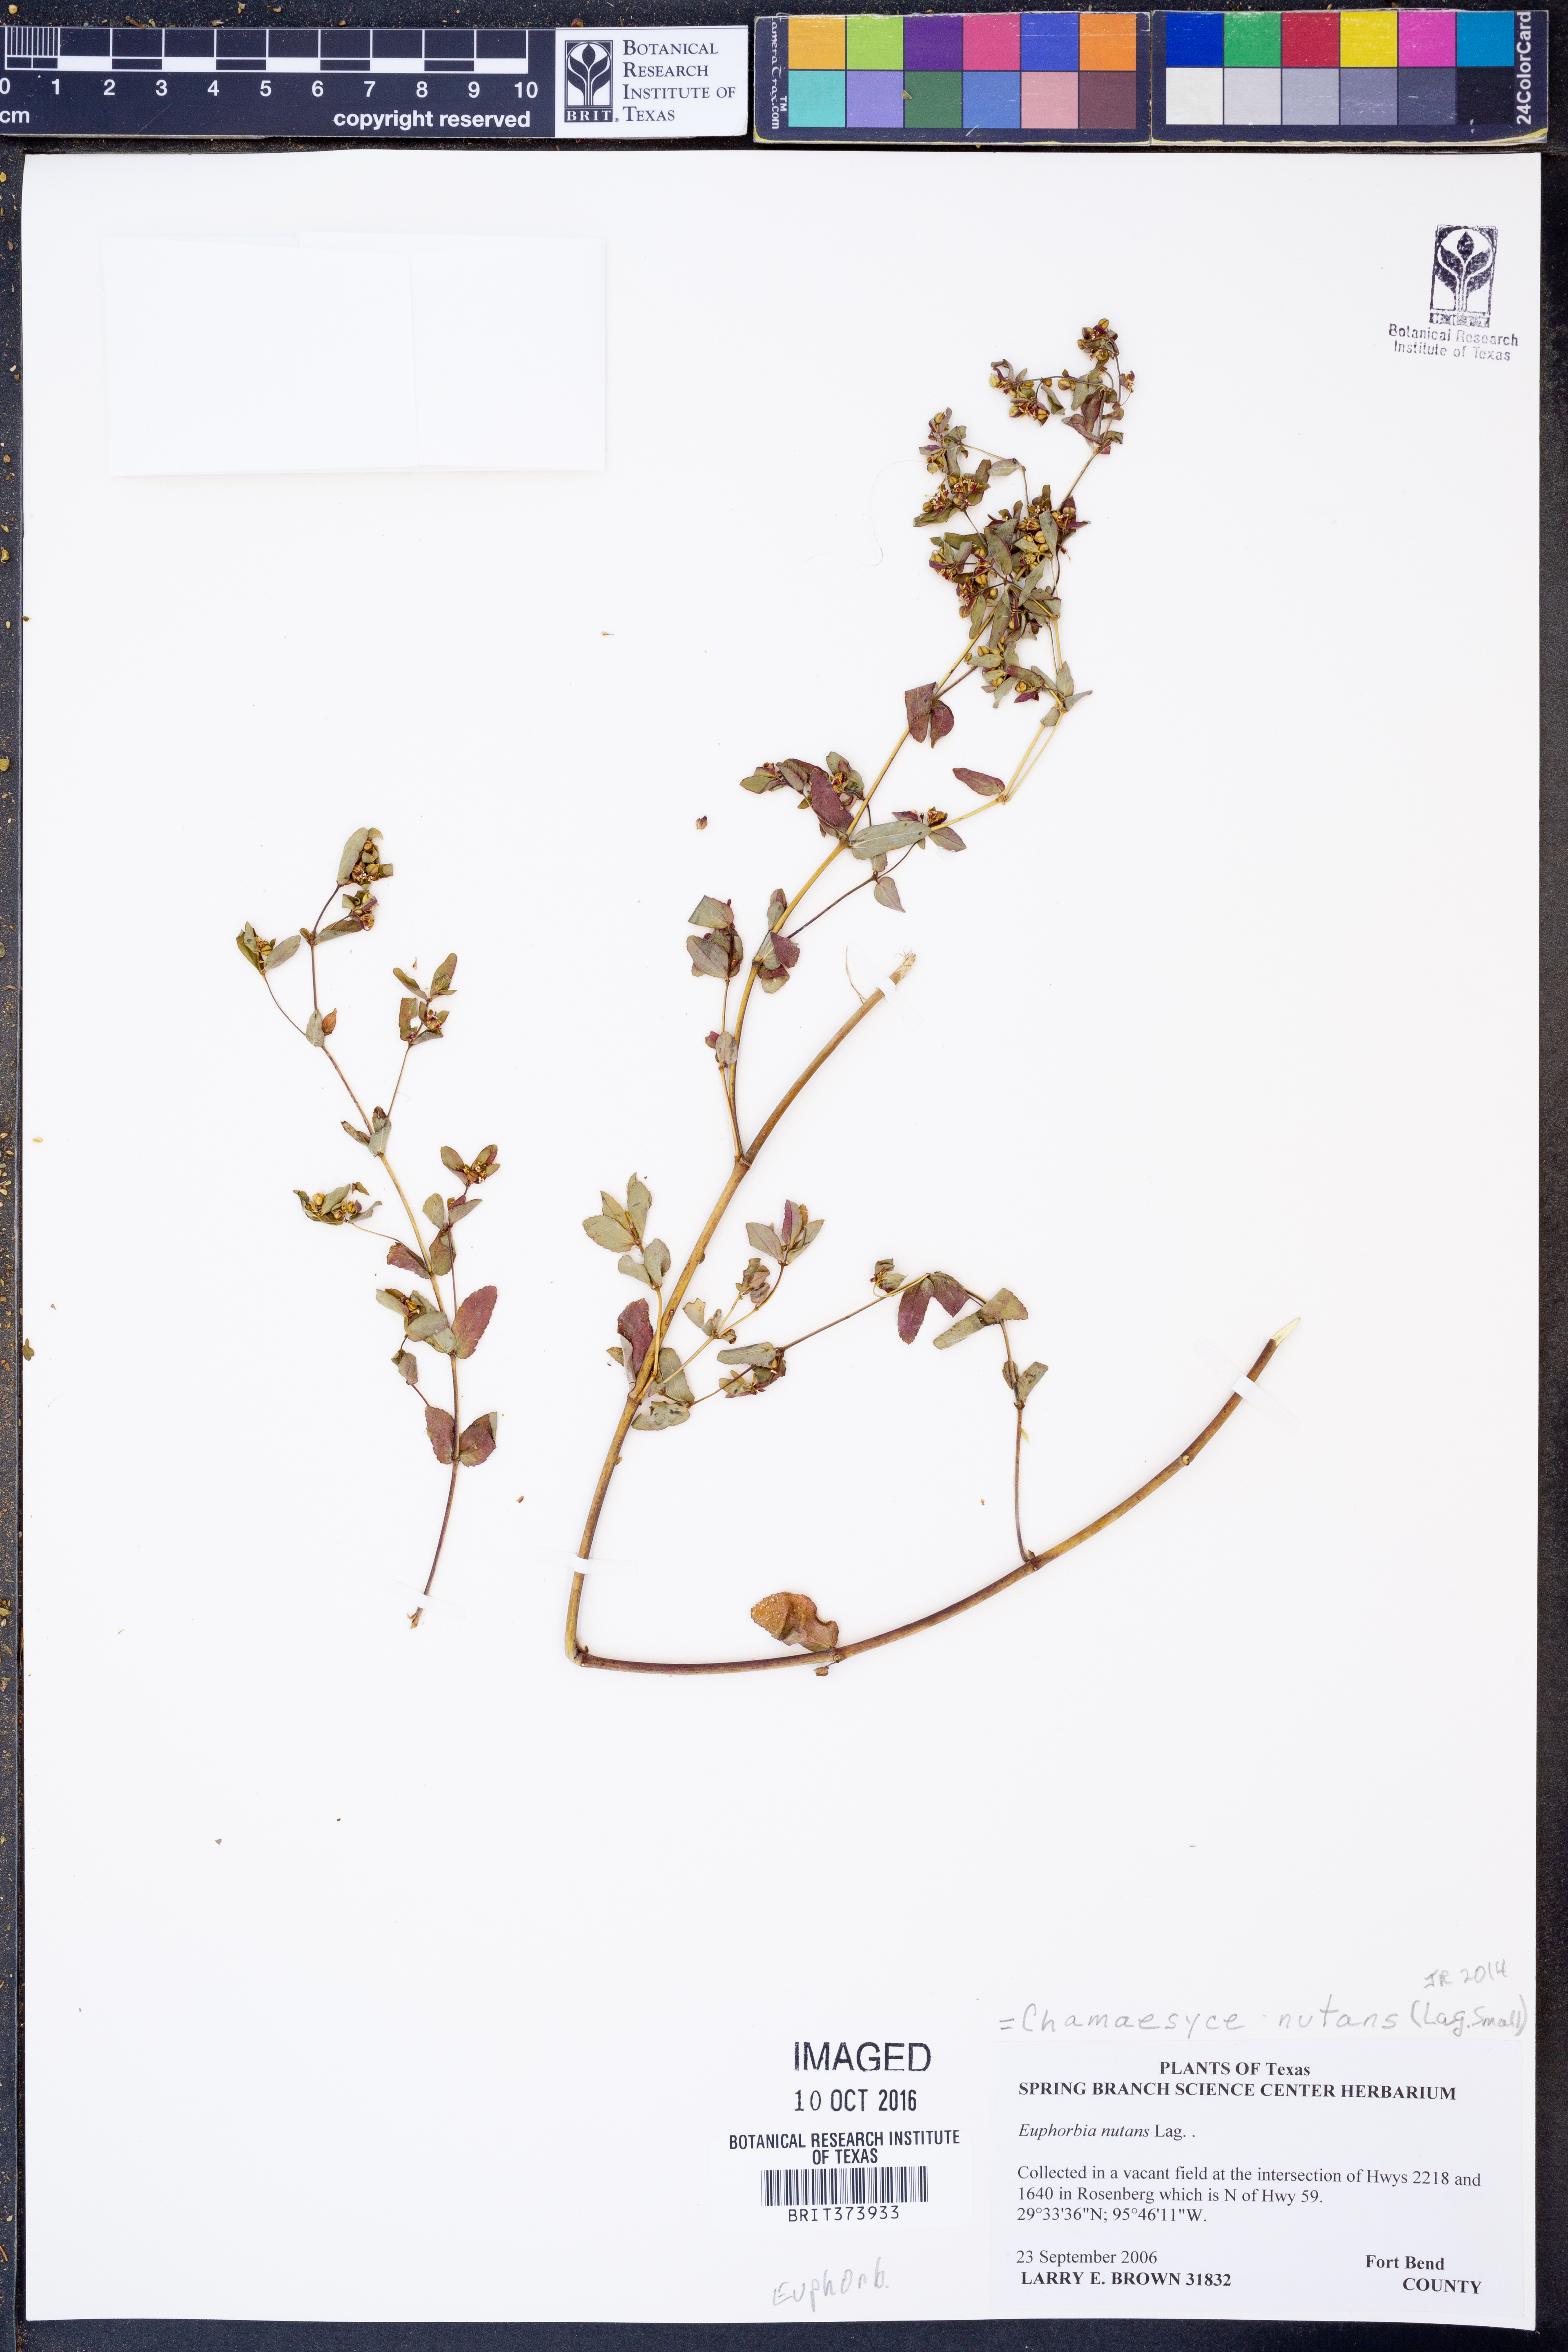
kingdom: Plantae
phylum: Tracheophyta
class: Magnoliopsida
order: Malpighiales
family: Euphorbiaceae
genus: Euphorbia
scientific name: Euphorbia nutans
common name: Eyebane
